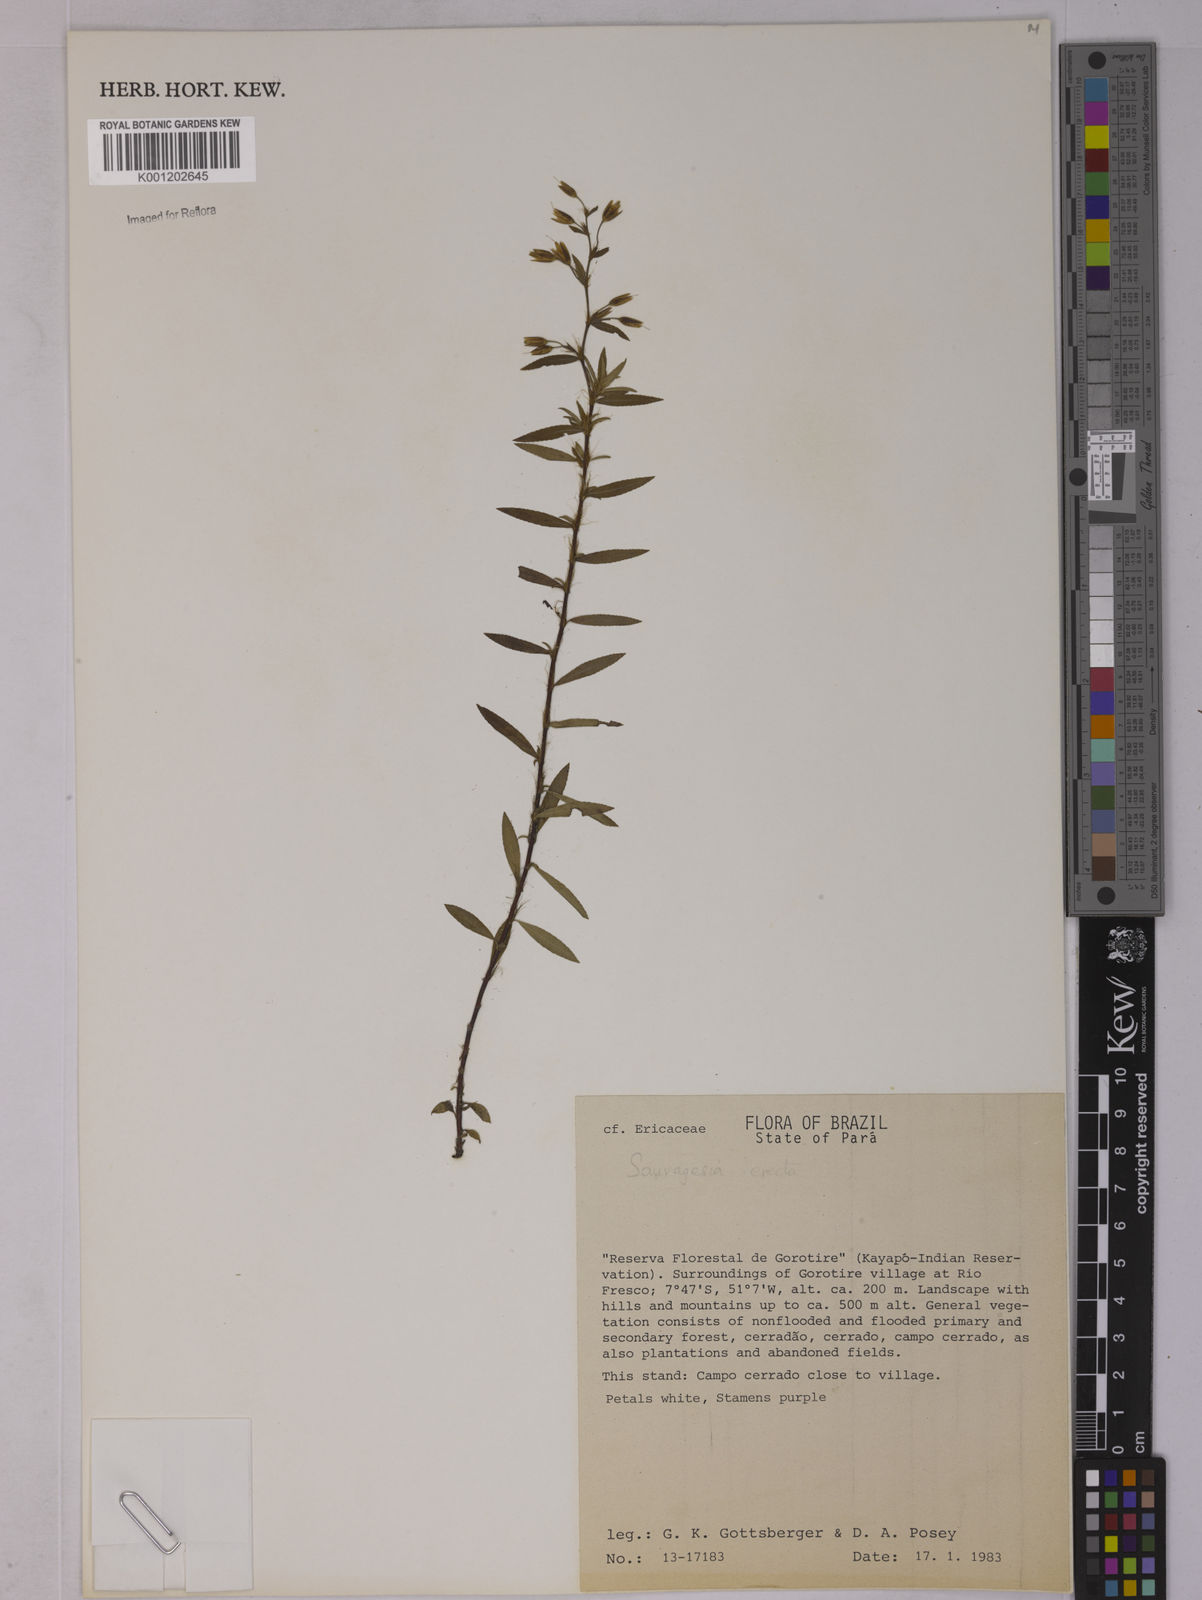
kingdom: Plantae
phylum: Tracheophyta
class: Magnoliopsida
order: Malpighiales
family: Ochnaceae
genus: Sauvagesia
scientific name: Sauvagesia erecta
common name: Creole tea
